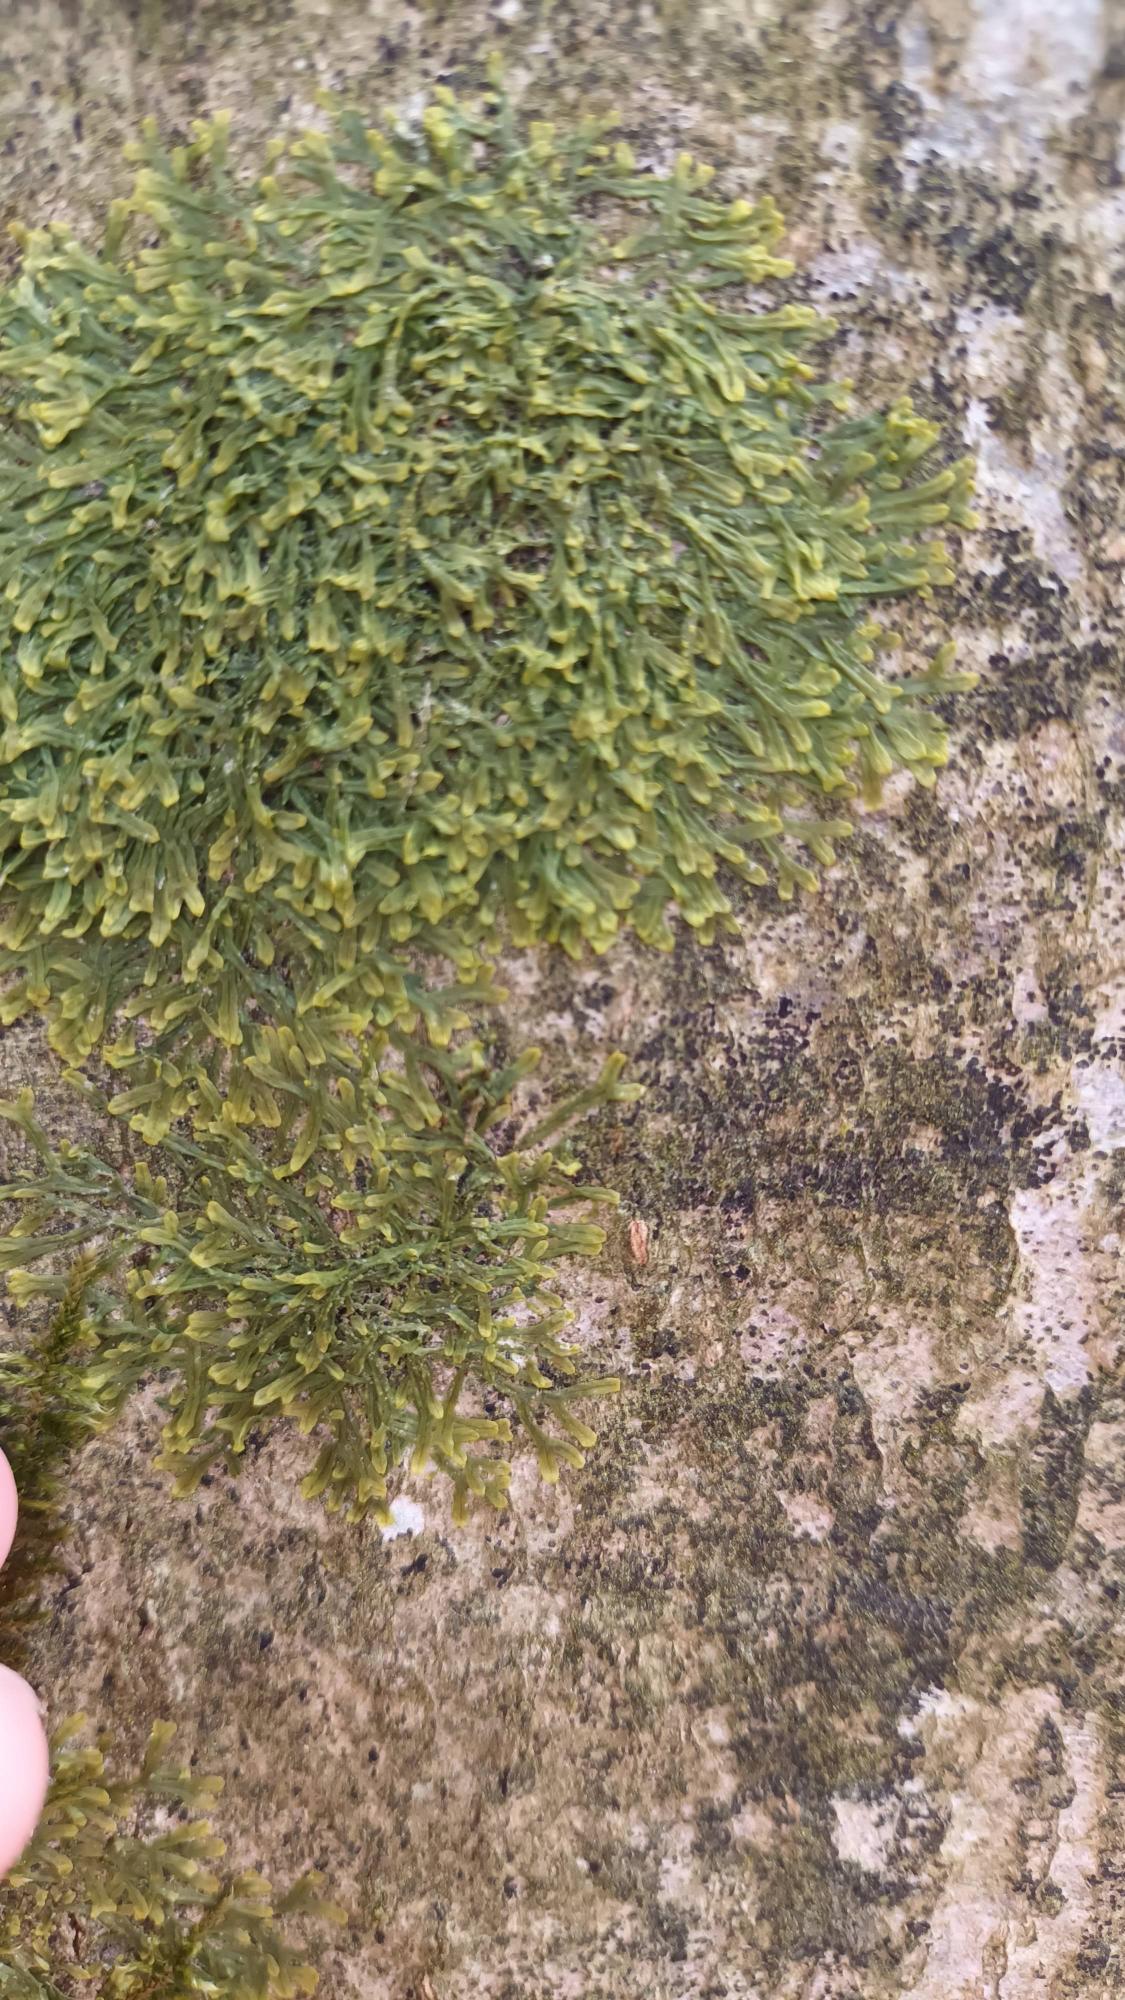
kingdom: Plantae
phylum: Marchantiophyta
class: Jungermanniopsida
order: Metzgeriales
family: Metzgeriaceae
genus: Metzgeria
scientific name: Metzgeria furcata
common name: Almindelig gaffelløv
